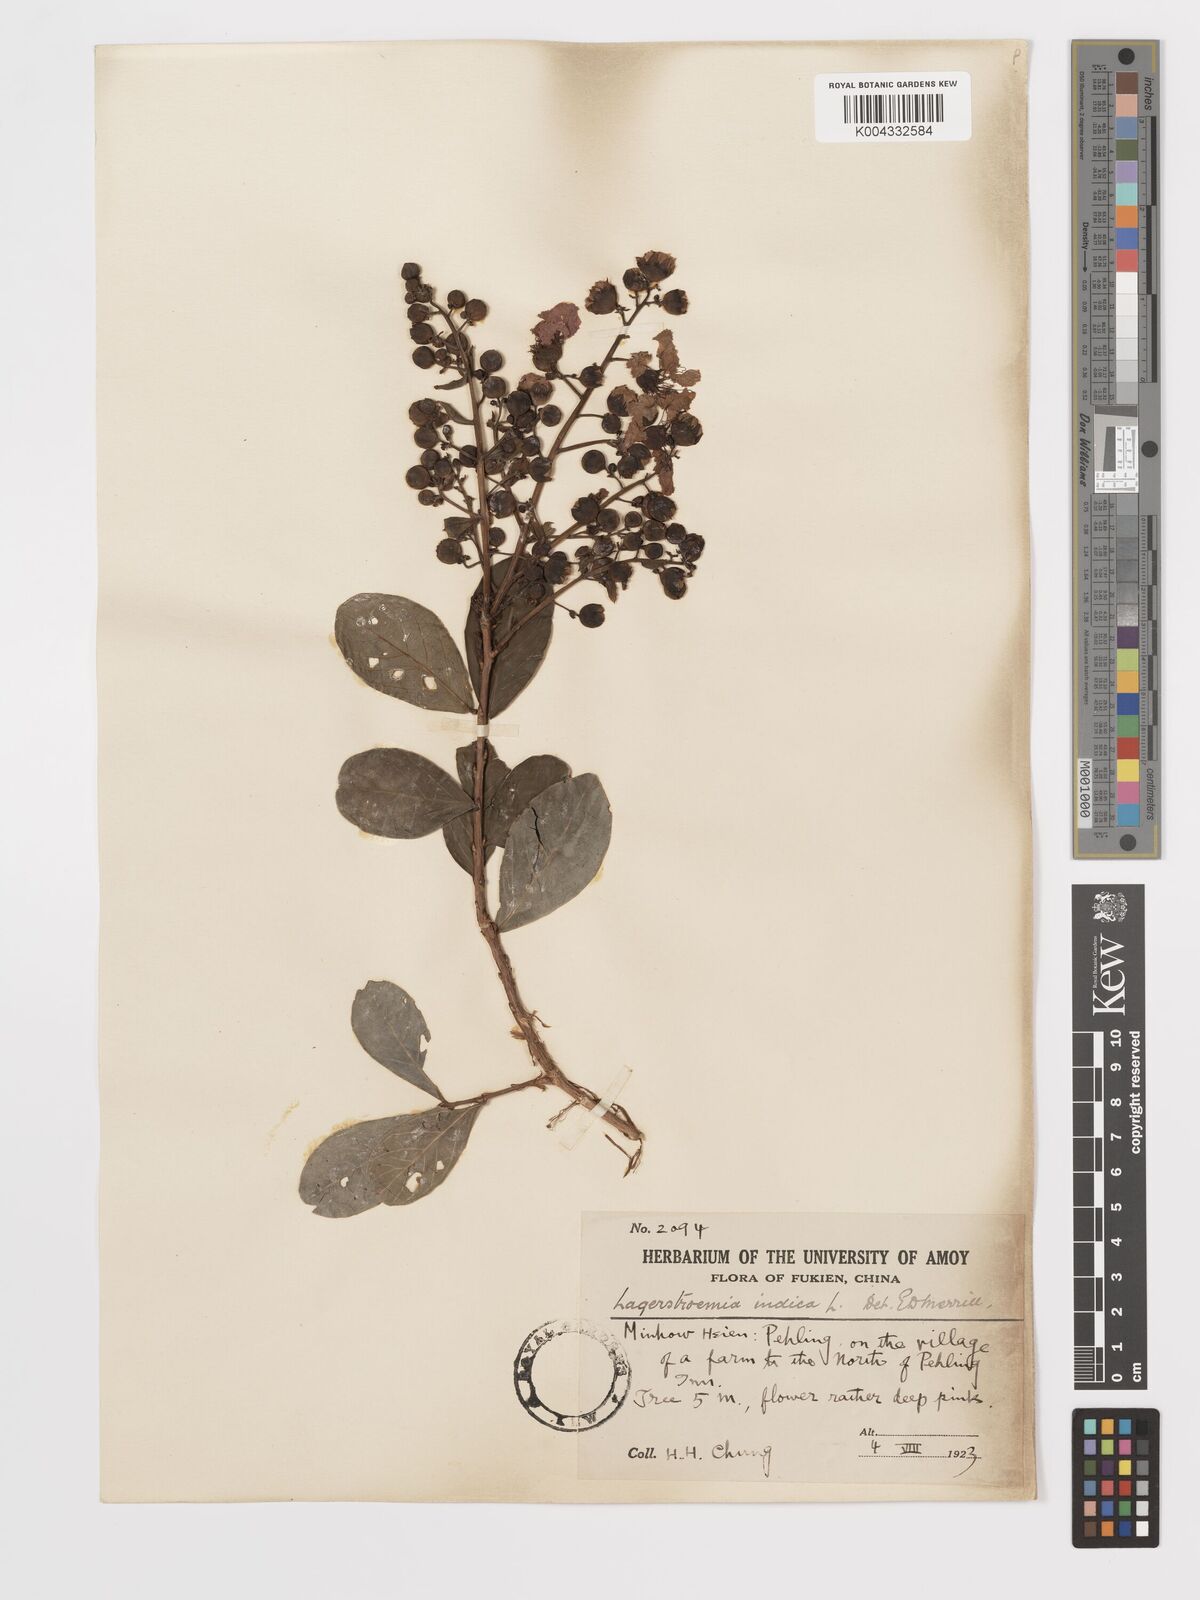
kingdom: Plantae
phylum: Tracheophyta
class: Magnoliopsida
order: Myrtales
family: Lythraceae
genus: Lagerstroemia
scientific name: Lagerstroemia indica
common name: Crape-myrtle
